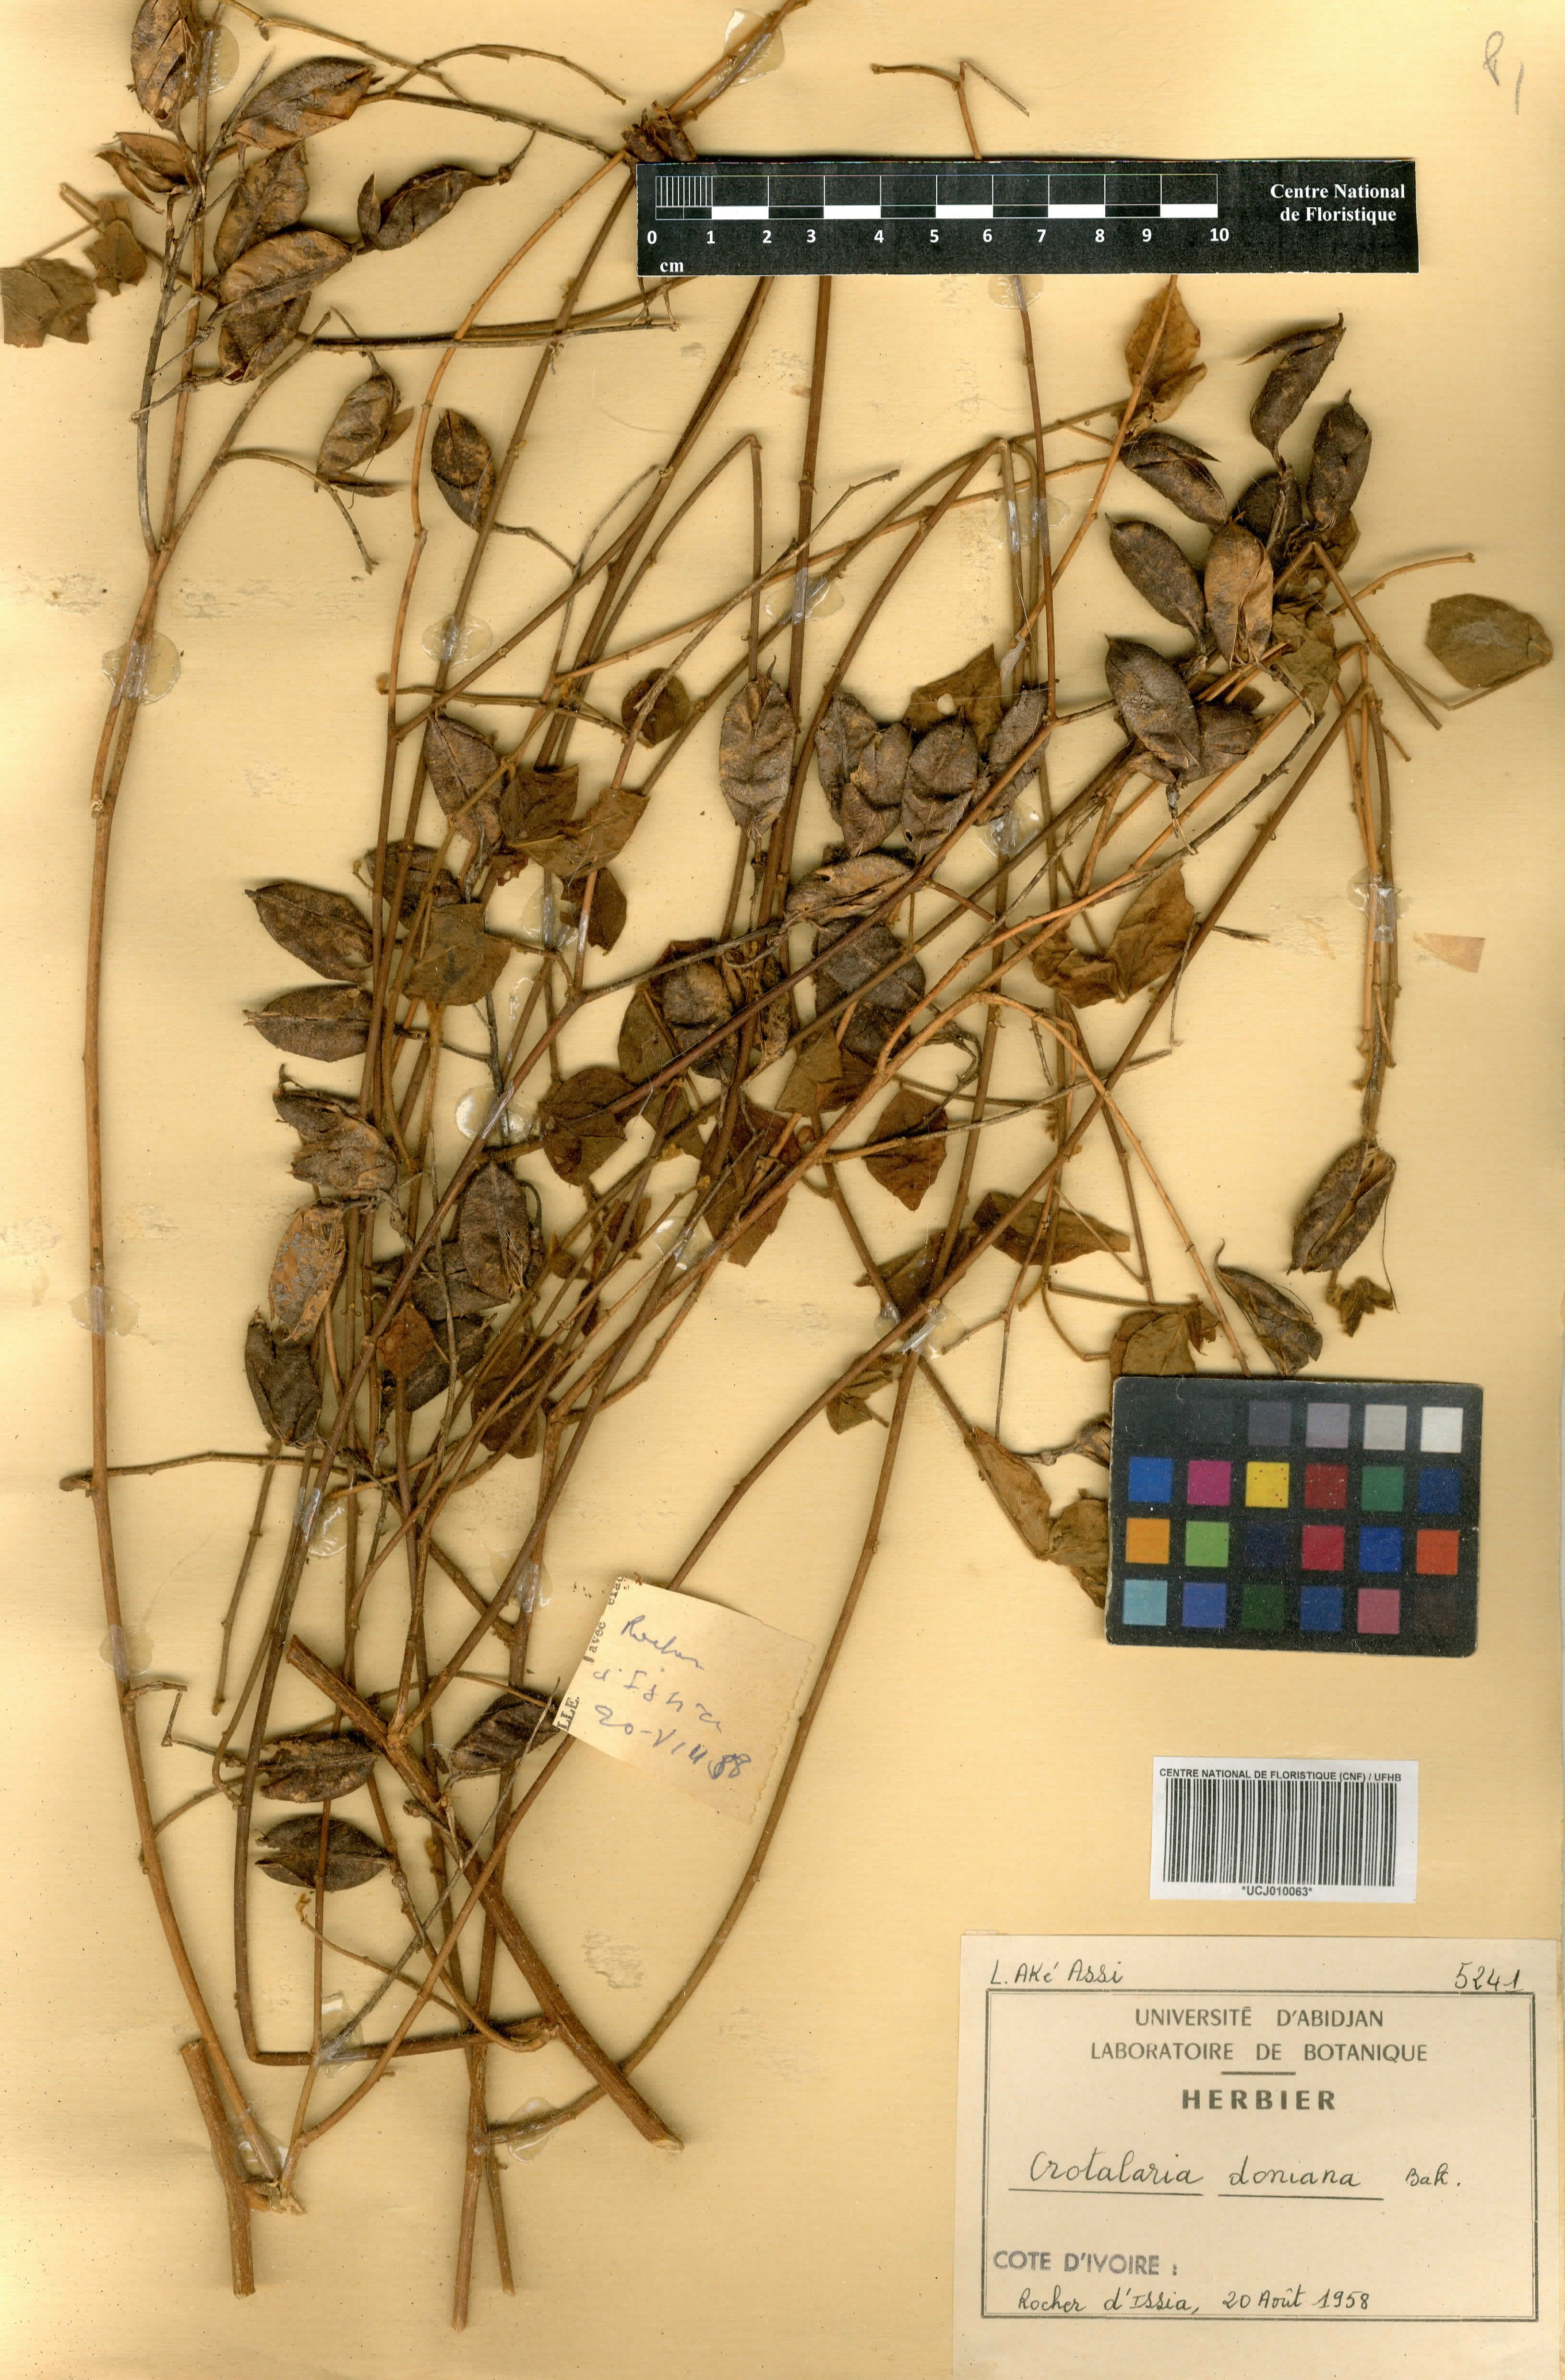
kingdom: Plantae
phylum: Tracheophyta
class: Magnoliopsida
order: Fabales
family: Fabaceae
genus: Crotalaria
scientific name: Crotalaria doniana
